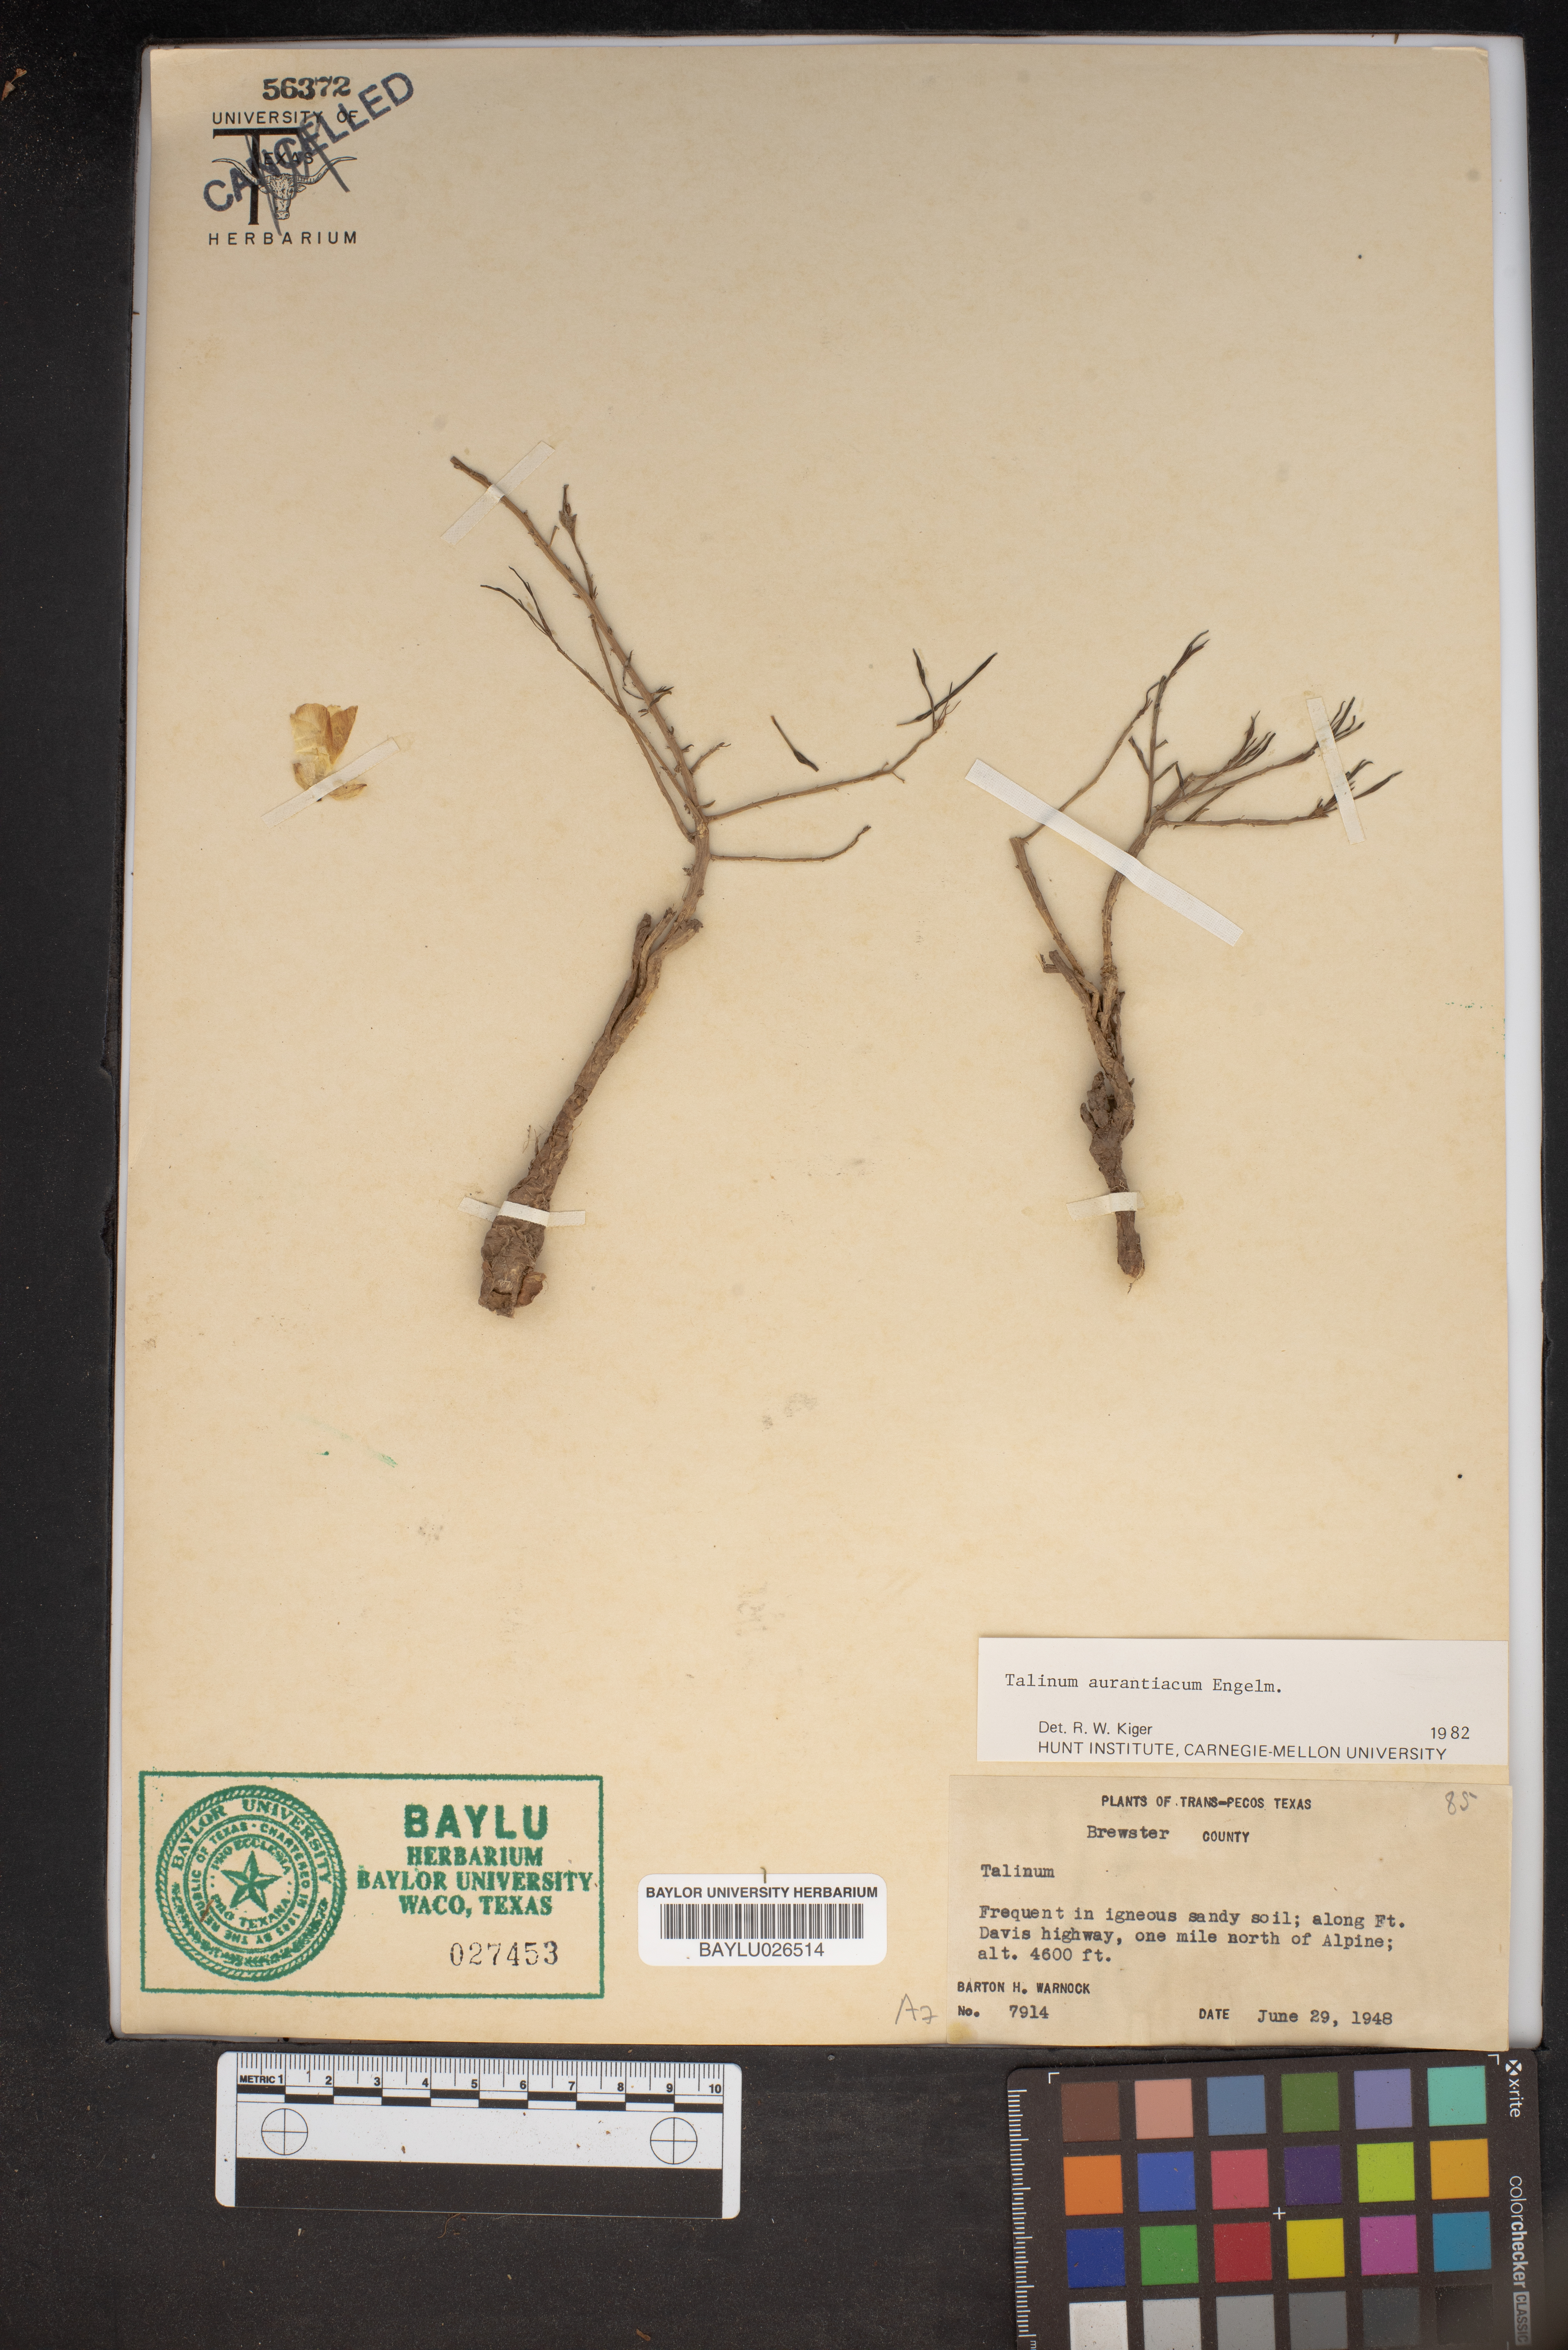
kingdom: Plantae
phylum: Tracheophyta
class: Magnoliopsida
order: Caryophyllales
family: Montiaceae
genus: Phemeranthus
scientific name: Phemeranthus aurantiacus
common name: Orange fameflower
